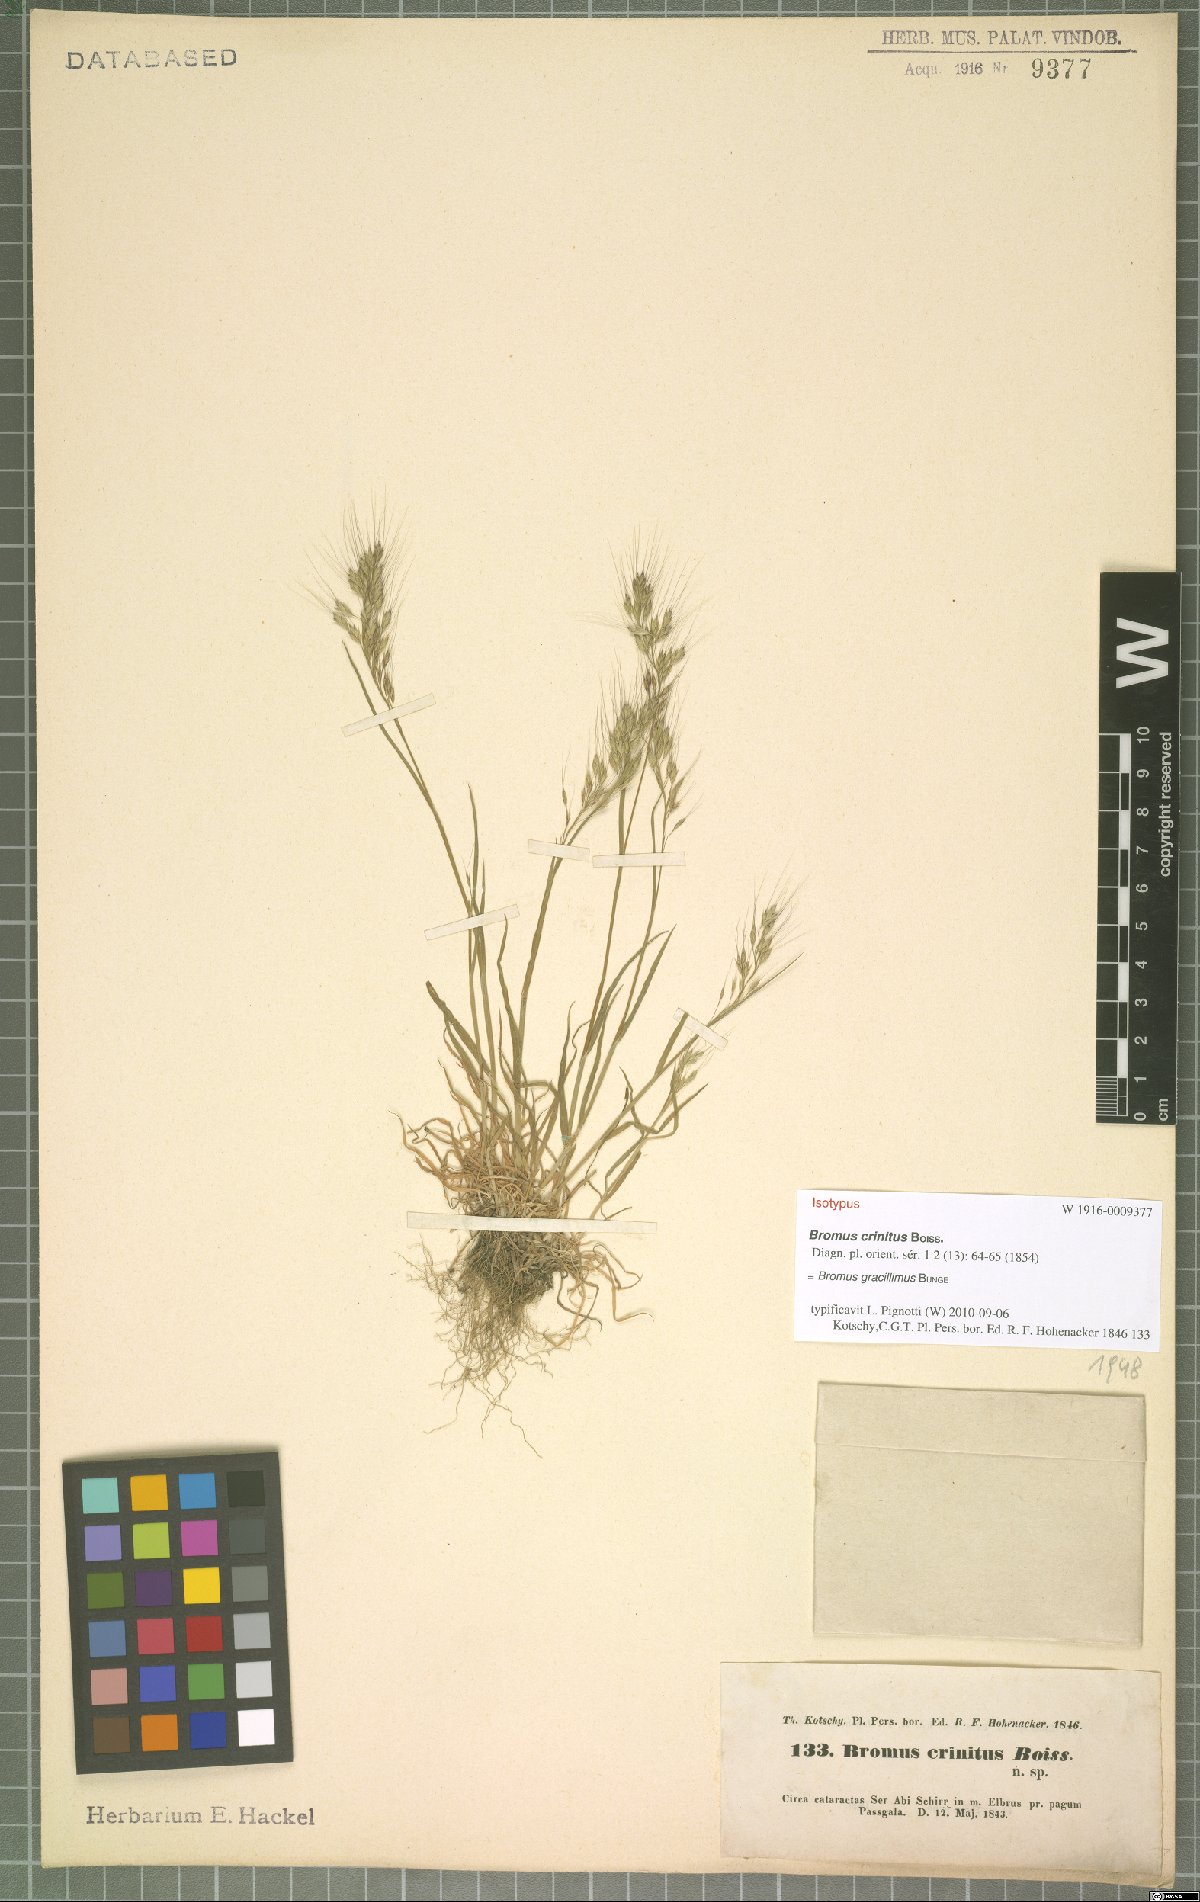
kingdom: Plantae
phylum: Tracheophyta
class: Liliopsida
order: Poales
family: Poaceae
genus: Bromus
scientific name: Bromus gracillimus
